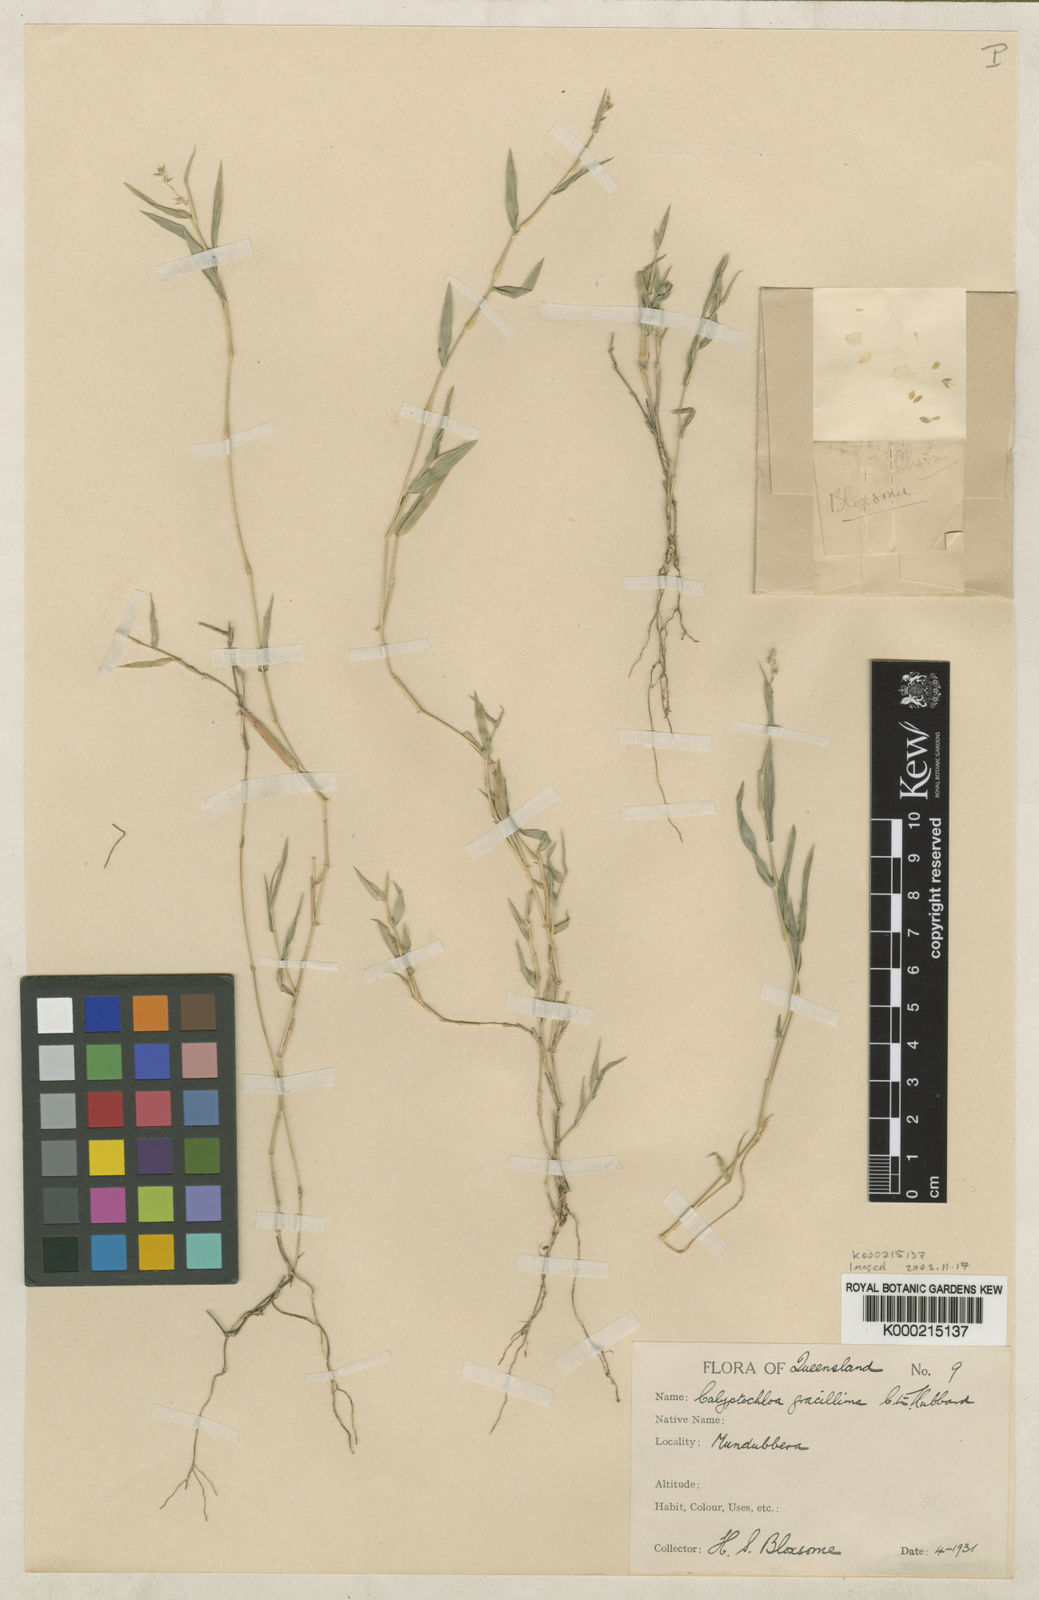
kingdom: Plantae
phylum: Tracheophyta
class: Liliopsida
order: Poales
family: Poaceae
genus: Calyptochloa
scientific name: Calyptochloa gracillima
